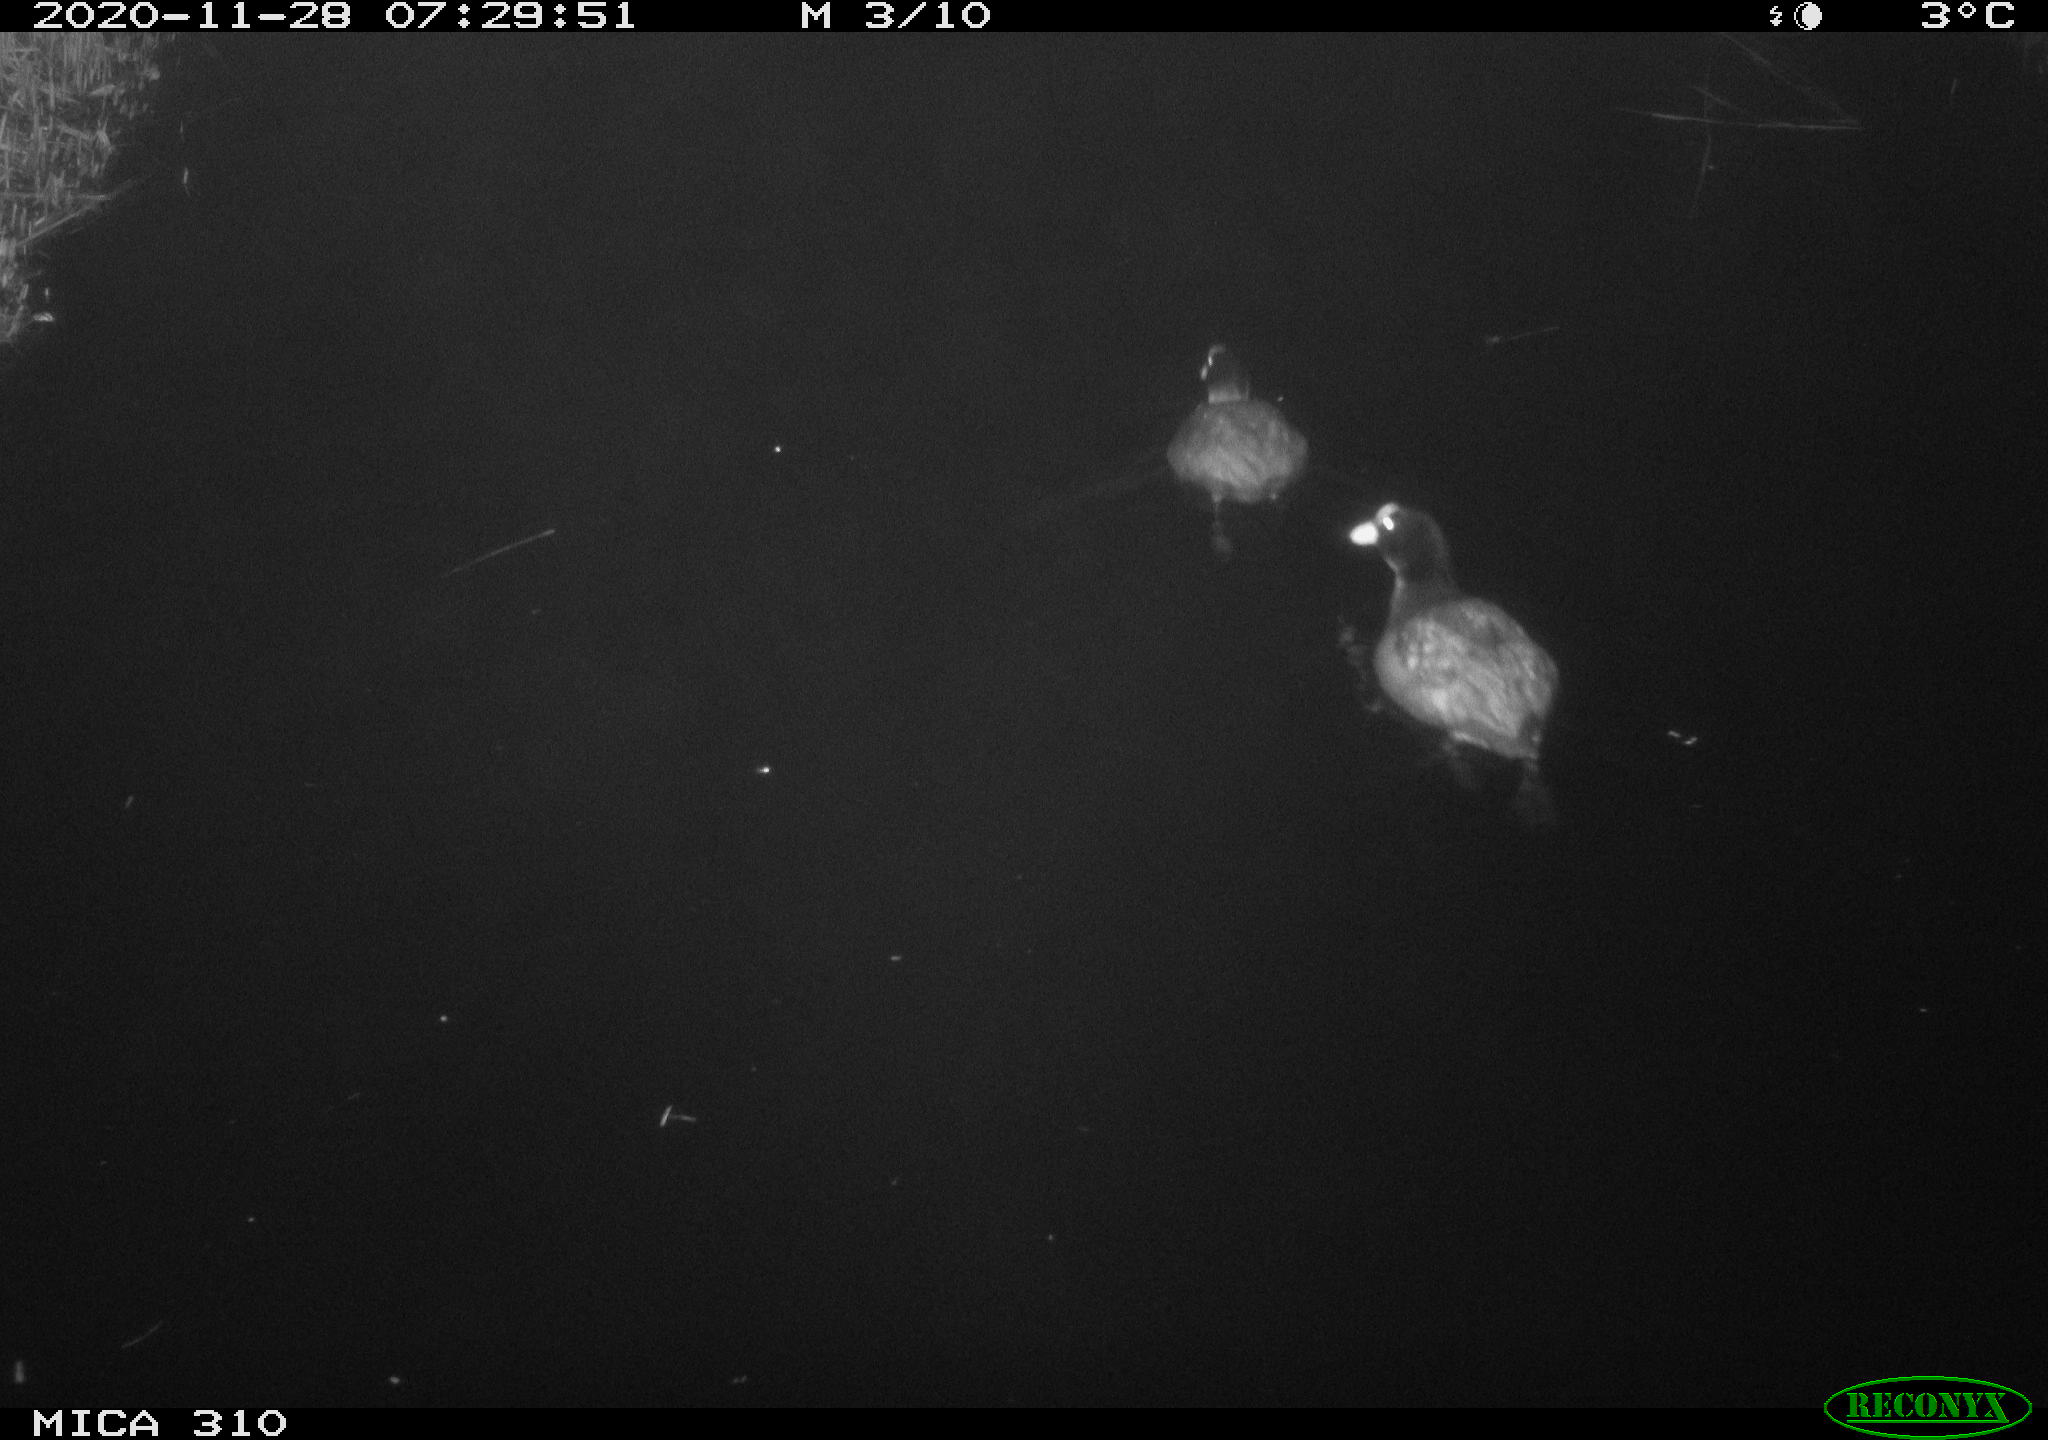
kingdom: Animalia
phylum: Chordata
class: Aves
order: Gruiformes
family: Rallidae
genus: Fulica
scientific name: Fulica atra
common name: Eurasian coot
